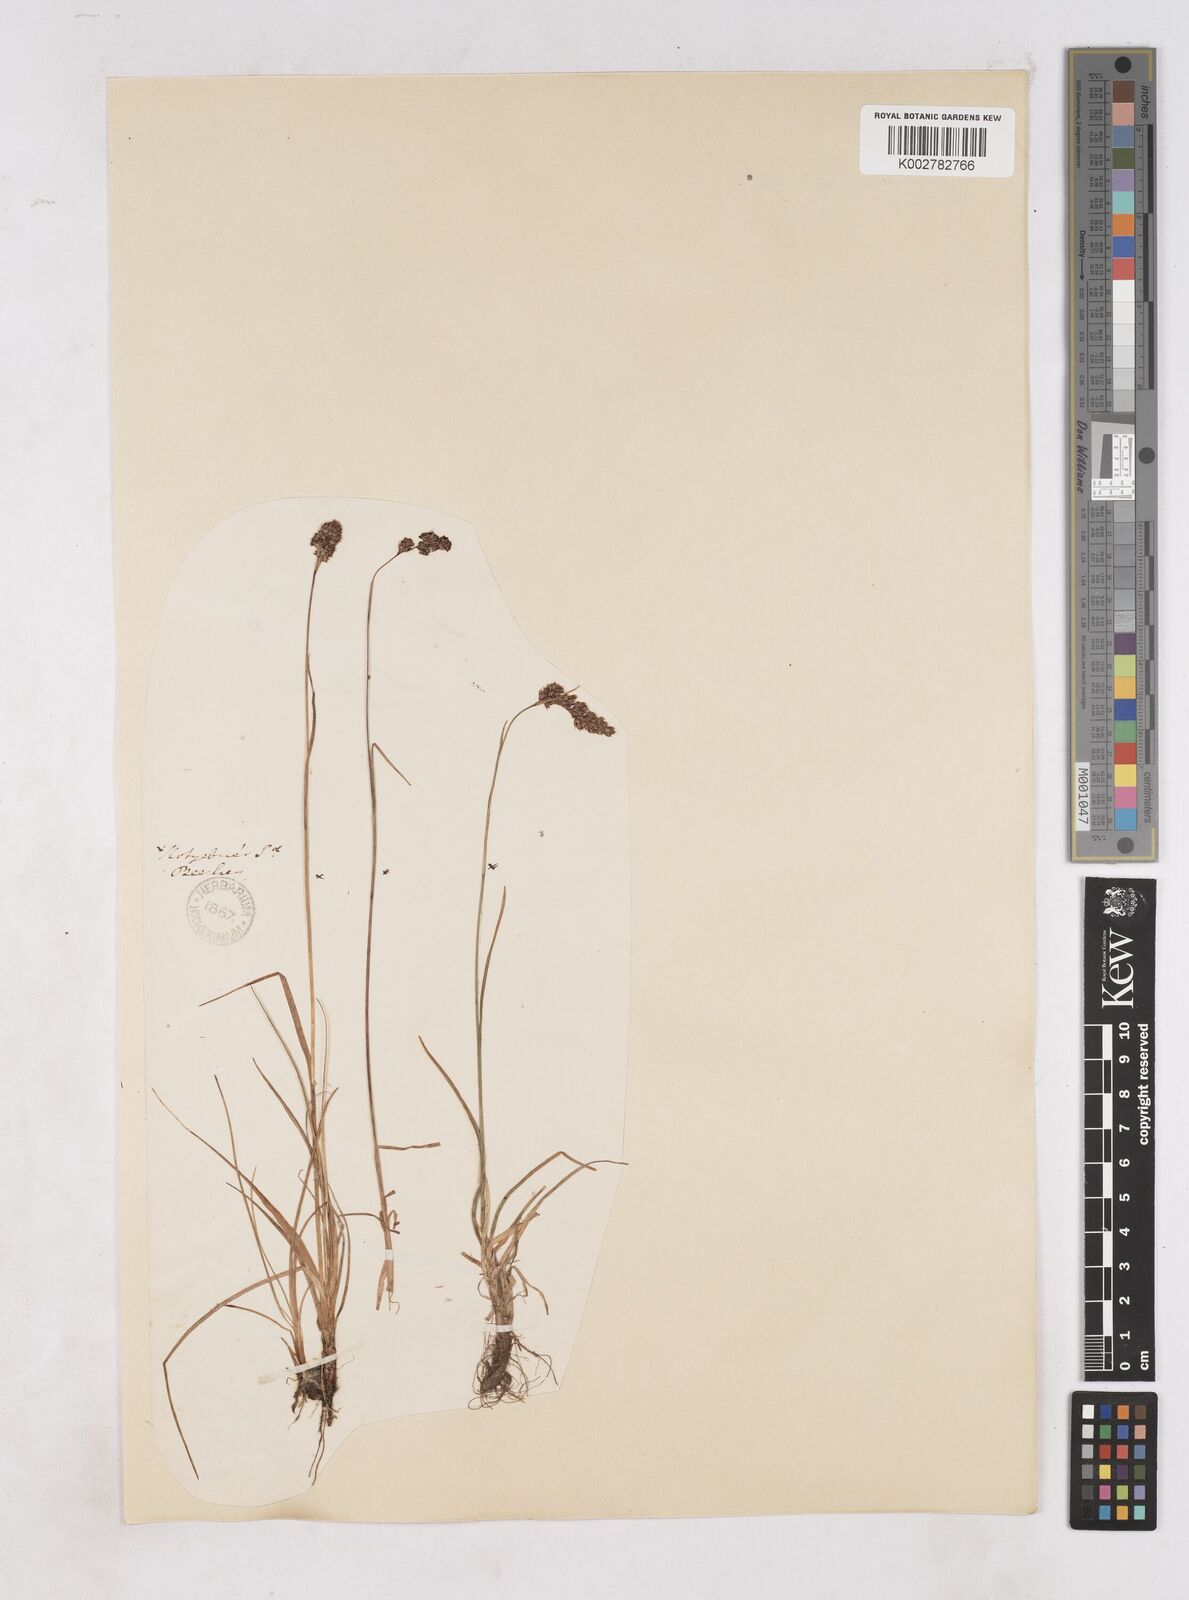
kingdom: Plantae
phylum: Tracheophyta
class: Liliopsida
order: Poales
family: Juncaceae
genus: Luzula
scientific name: Luzula spicata
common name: Spiked wood-rush
